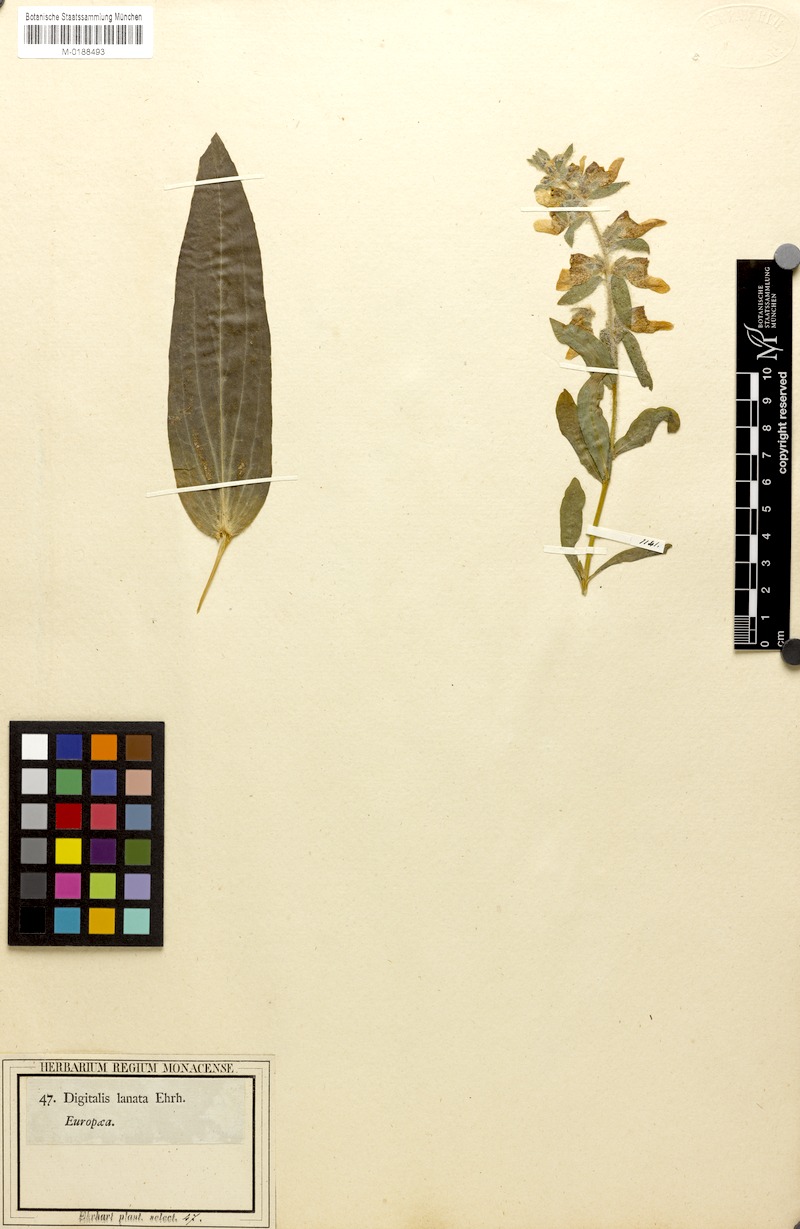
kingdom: Plantae
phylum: Tracheophyta
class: Magnoliopsida
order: Lamiales
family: Plantaginaceae
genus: Digitalis
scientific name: Digitalis lanata
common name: Grecian foxglove
